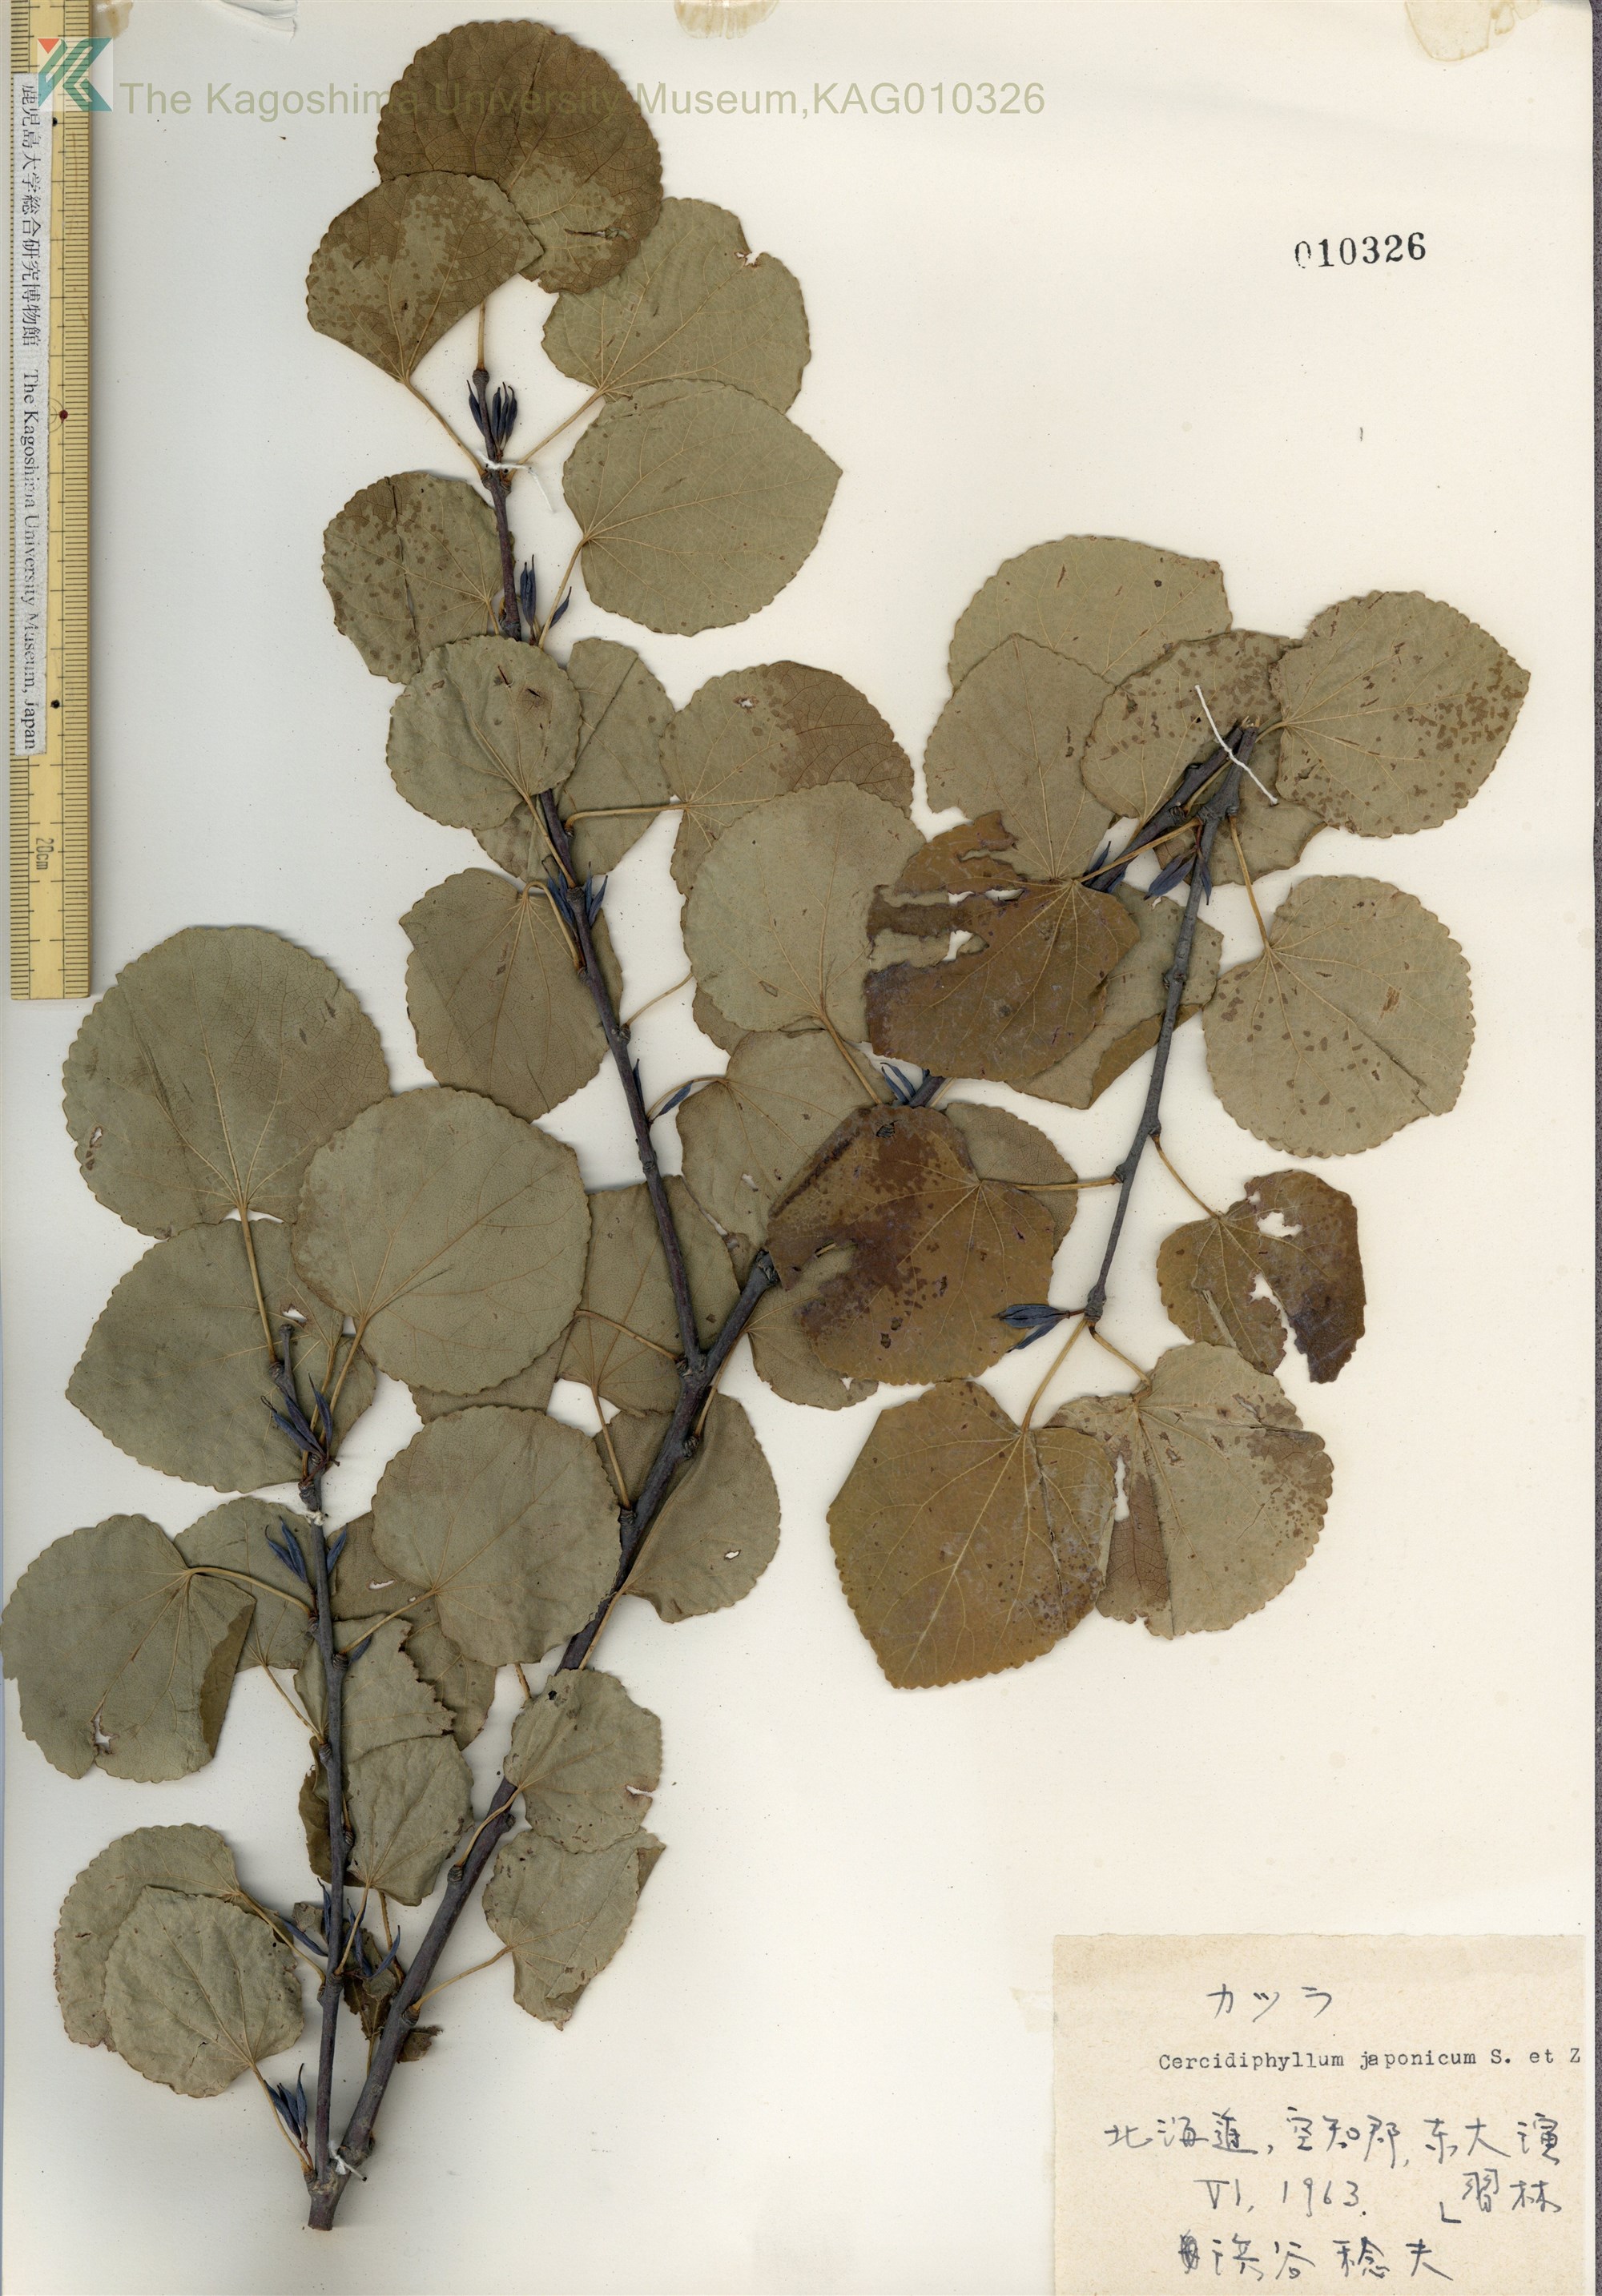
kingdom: Plantae
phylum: Tracheophyta
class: Magnoliopsida
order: Saxifragales
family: Cercidiphyllaceae
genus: Cercidiphyllum
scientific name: Cercidiphyllum magnificum
